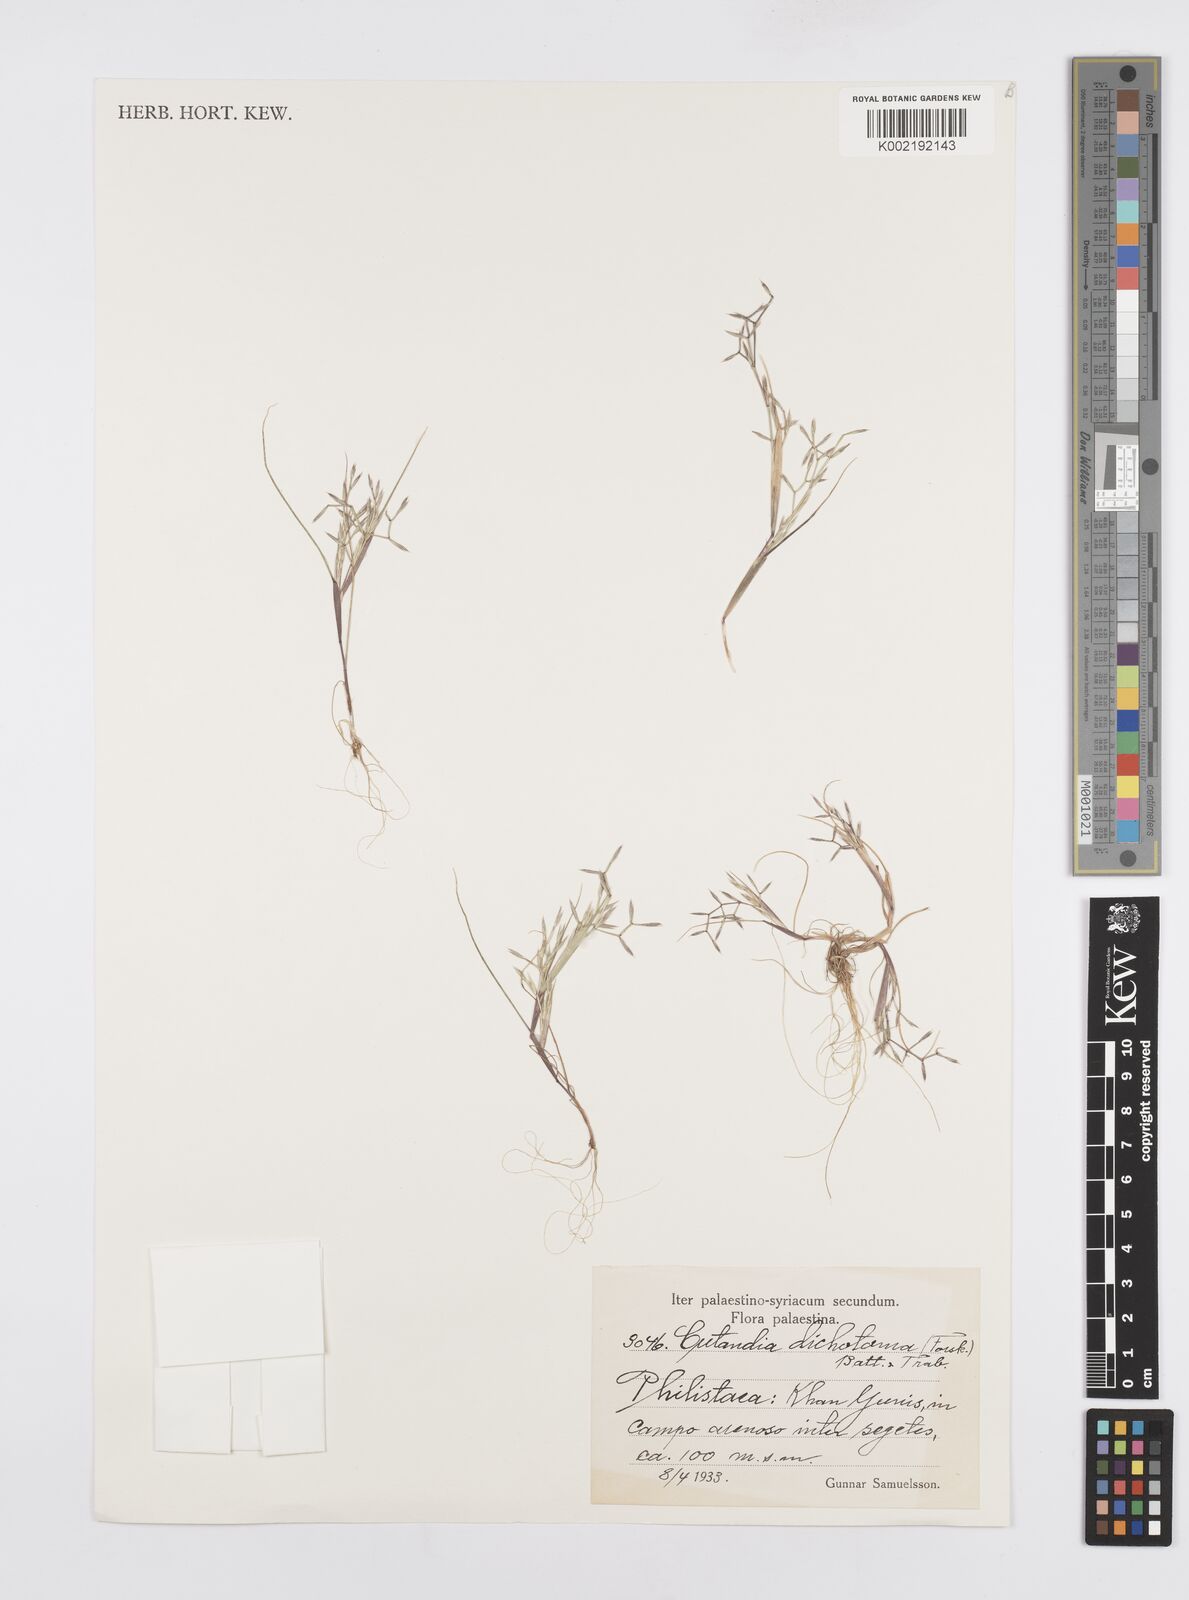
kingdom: Plantae
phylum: Tracheophyta
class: Liliopsida
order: Poales
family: Poaceae
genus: Cutandia
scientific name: Cutandia dichotoma
